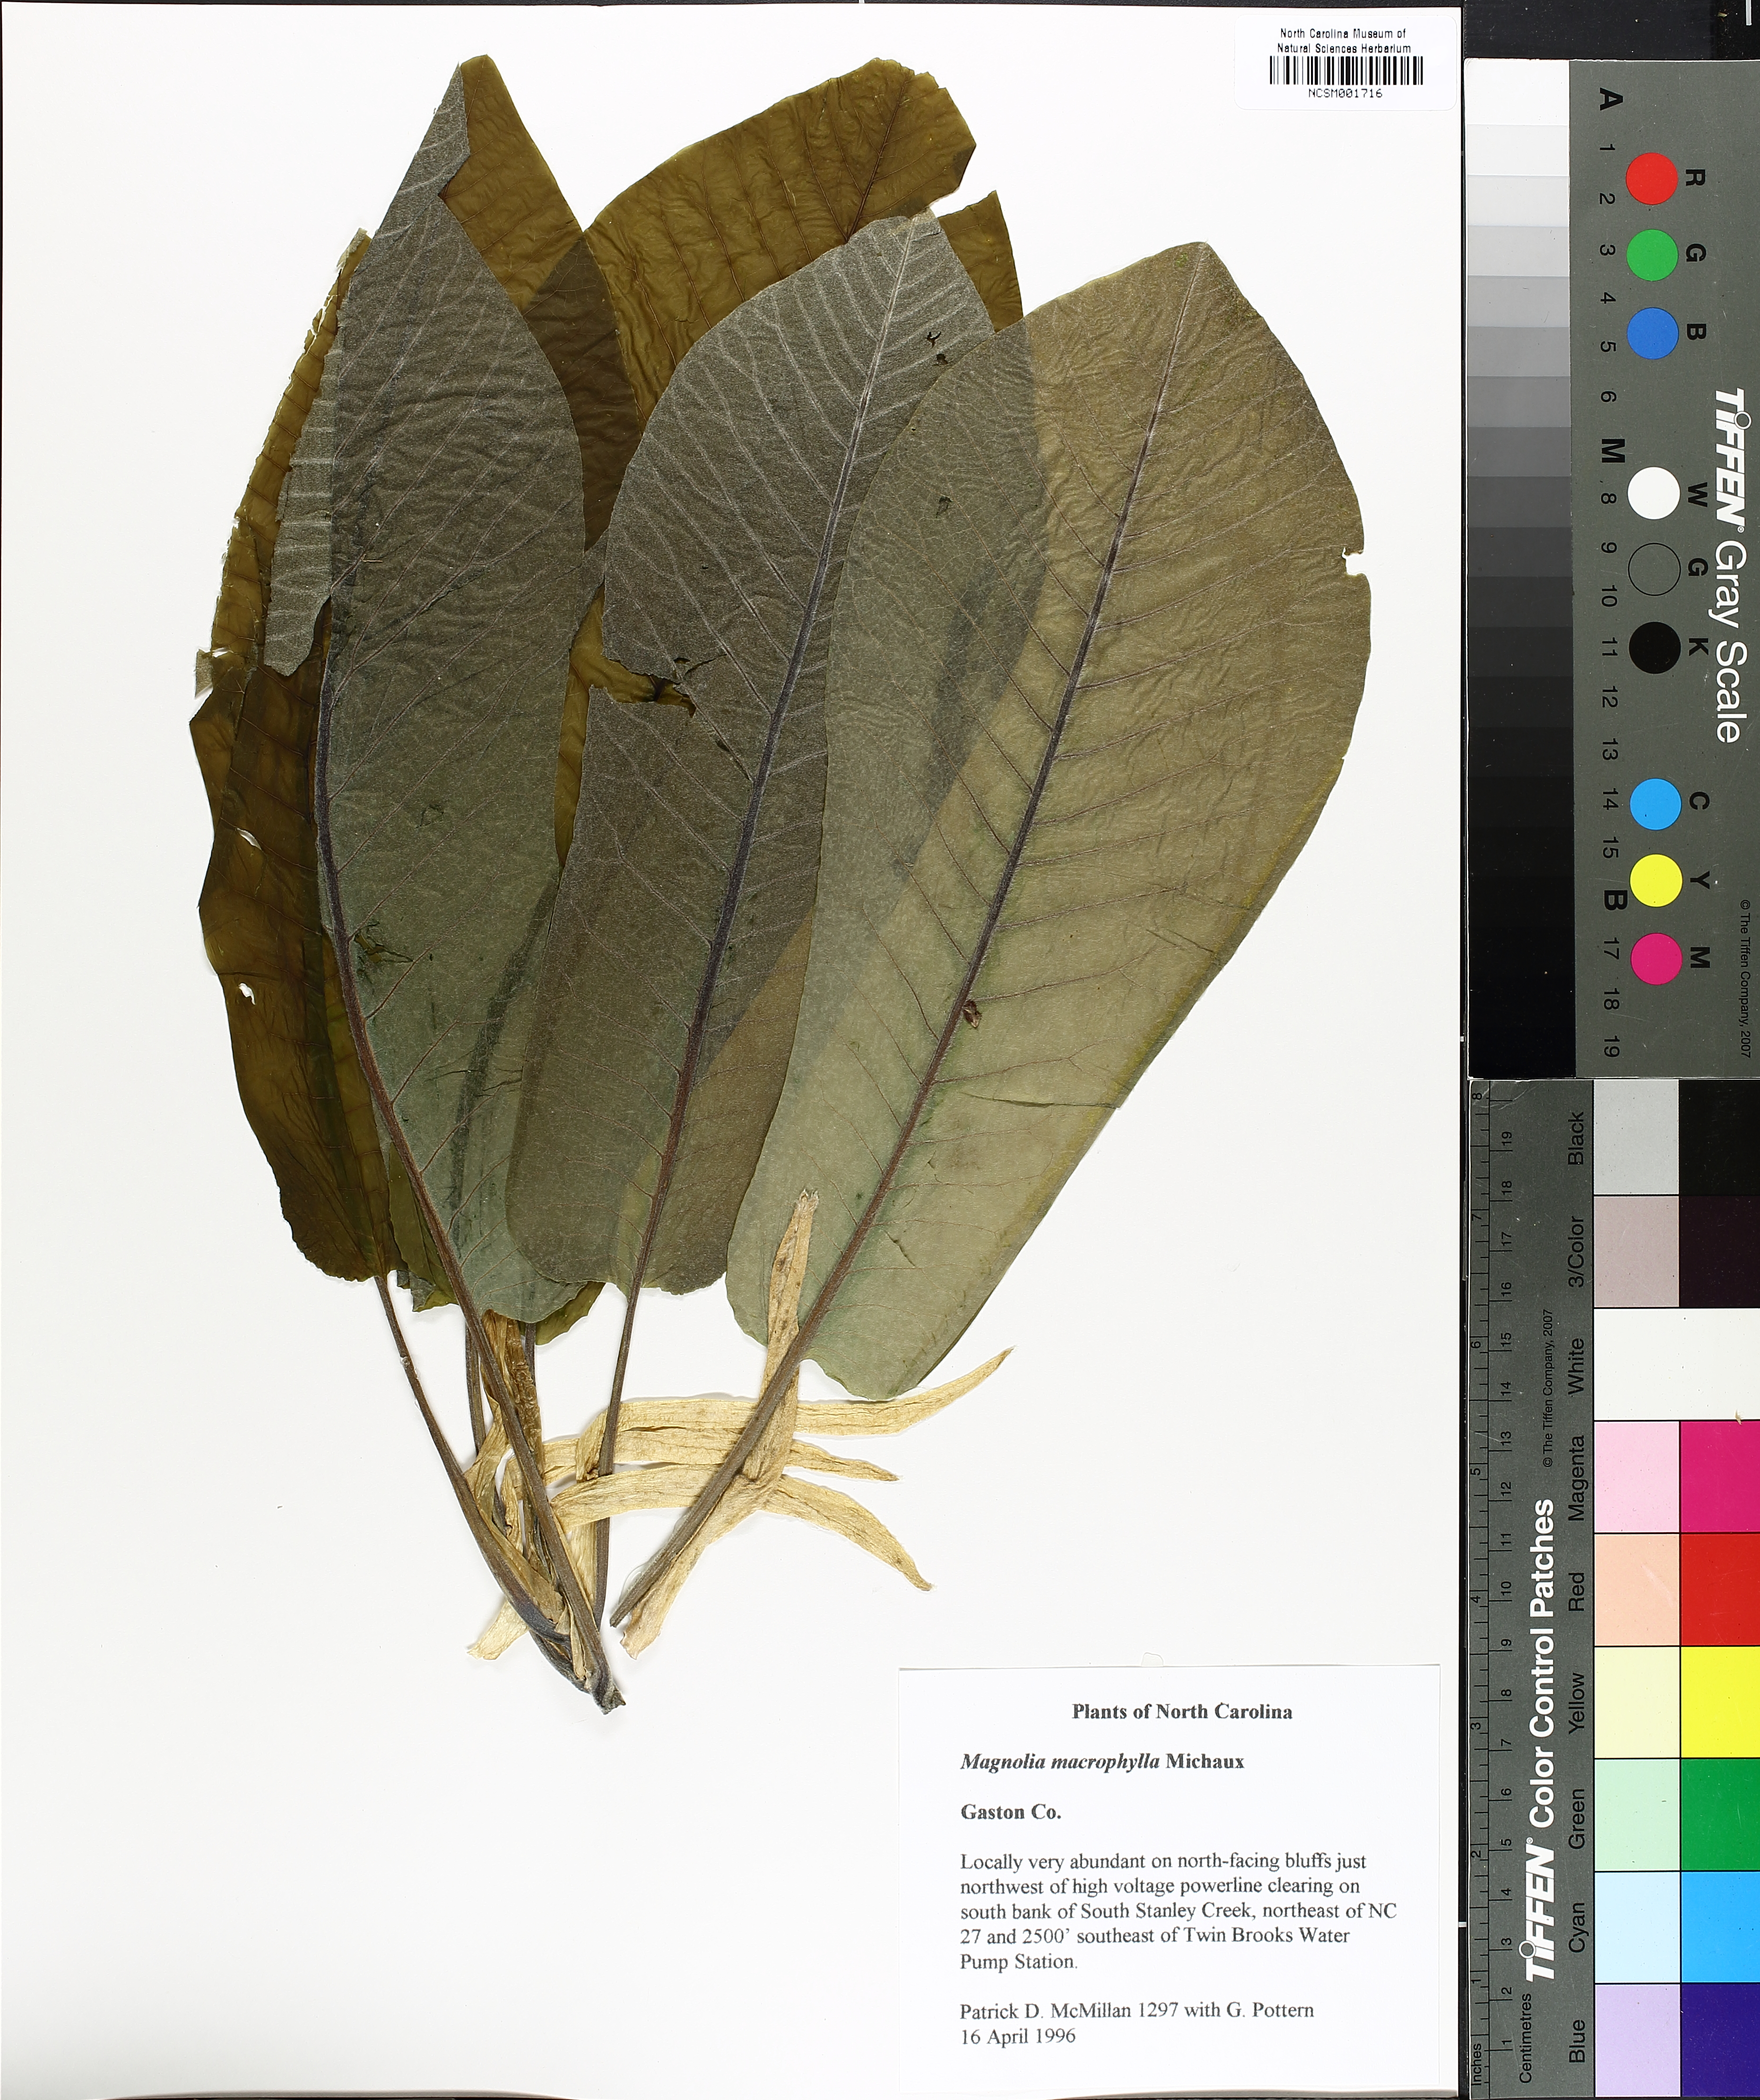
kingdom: Plantae
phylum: Tracheophyta
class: Magnoliopsida
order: Magnoliales
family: Magnoliaceae
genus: Magnolia
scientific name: Magnolia macrophylla
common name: Big-leaf magnolia
